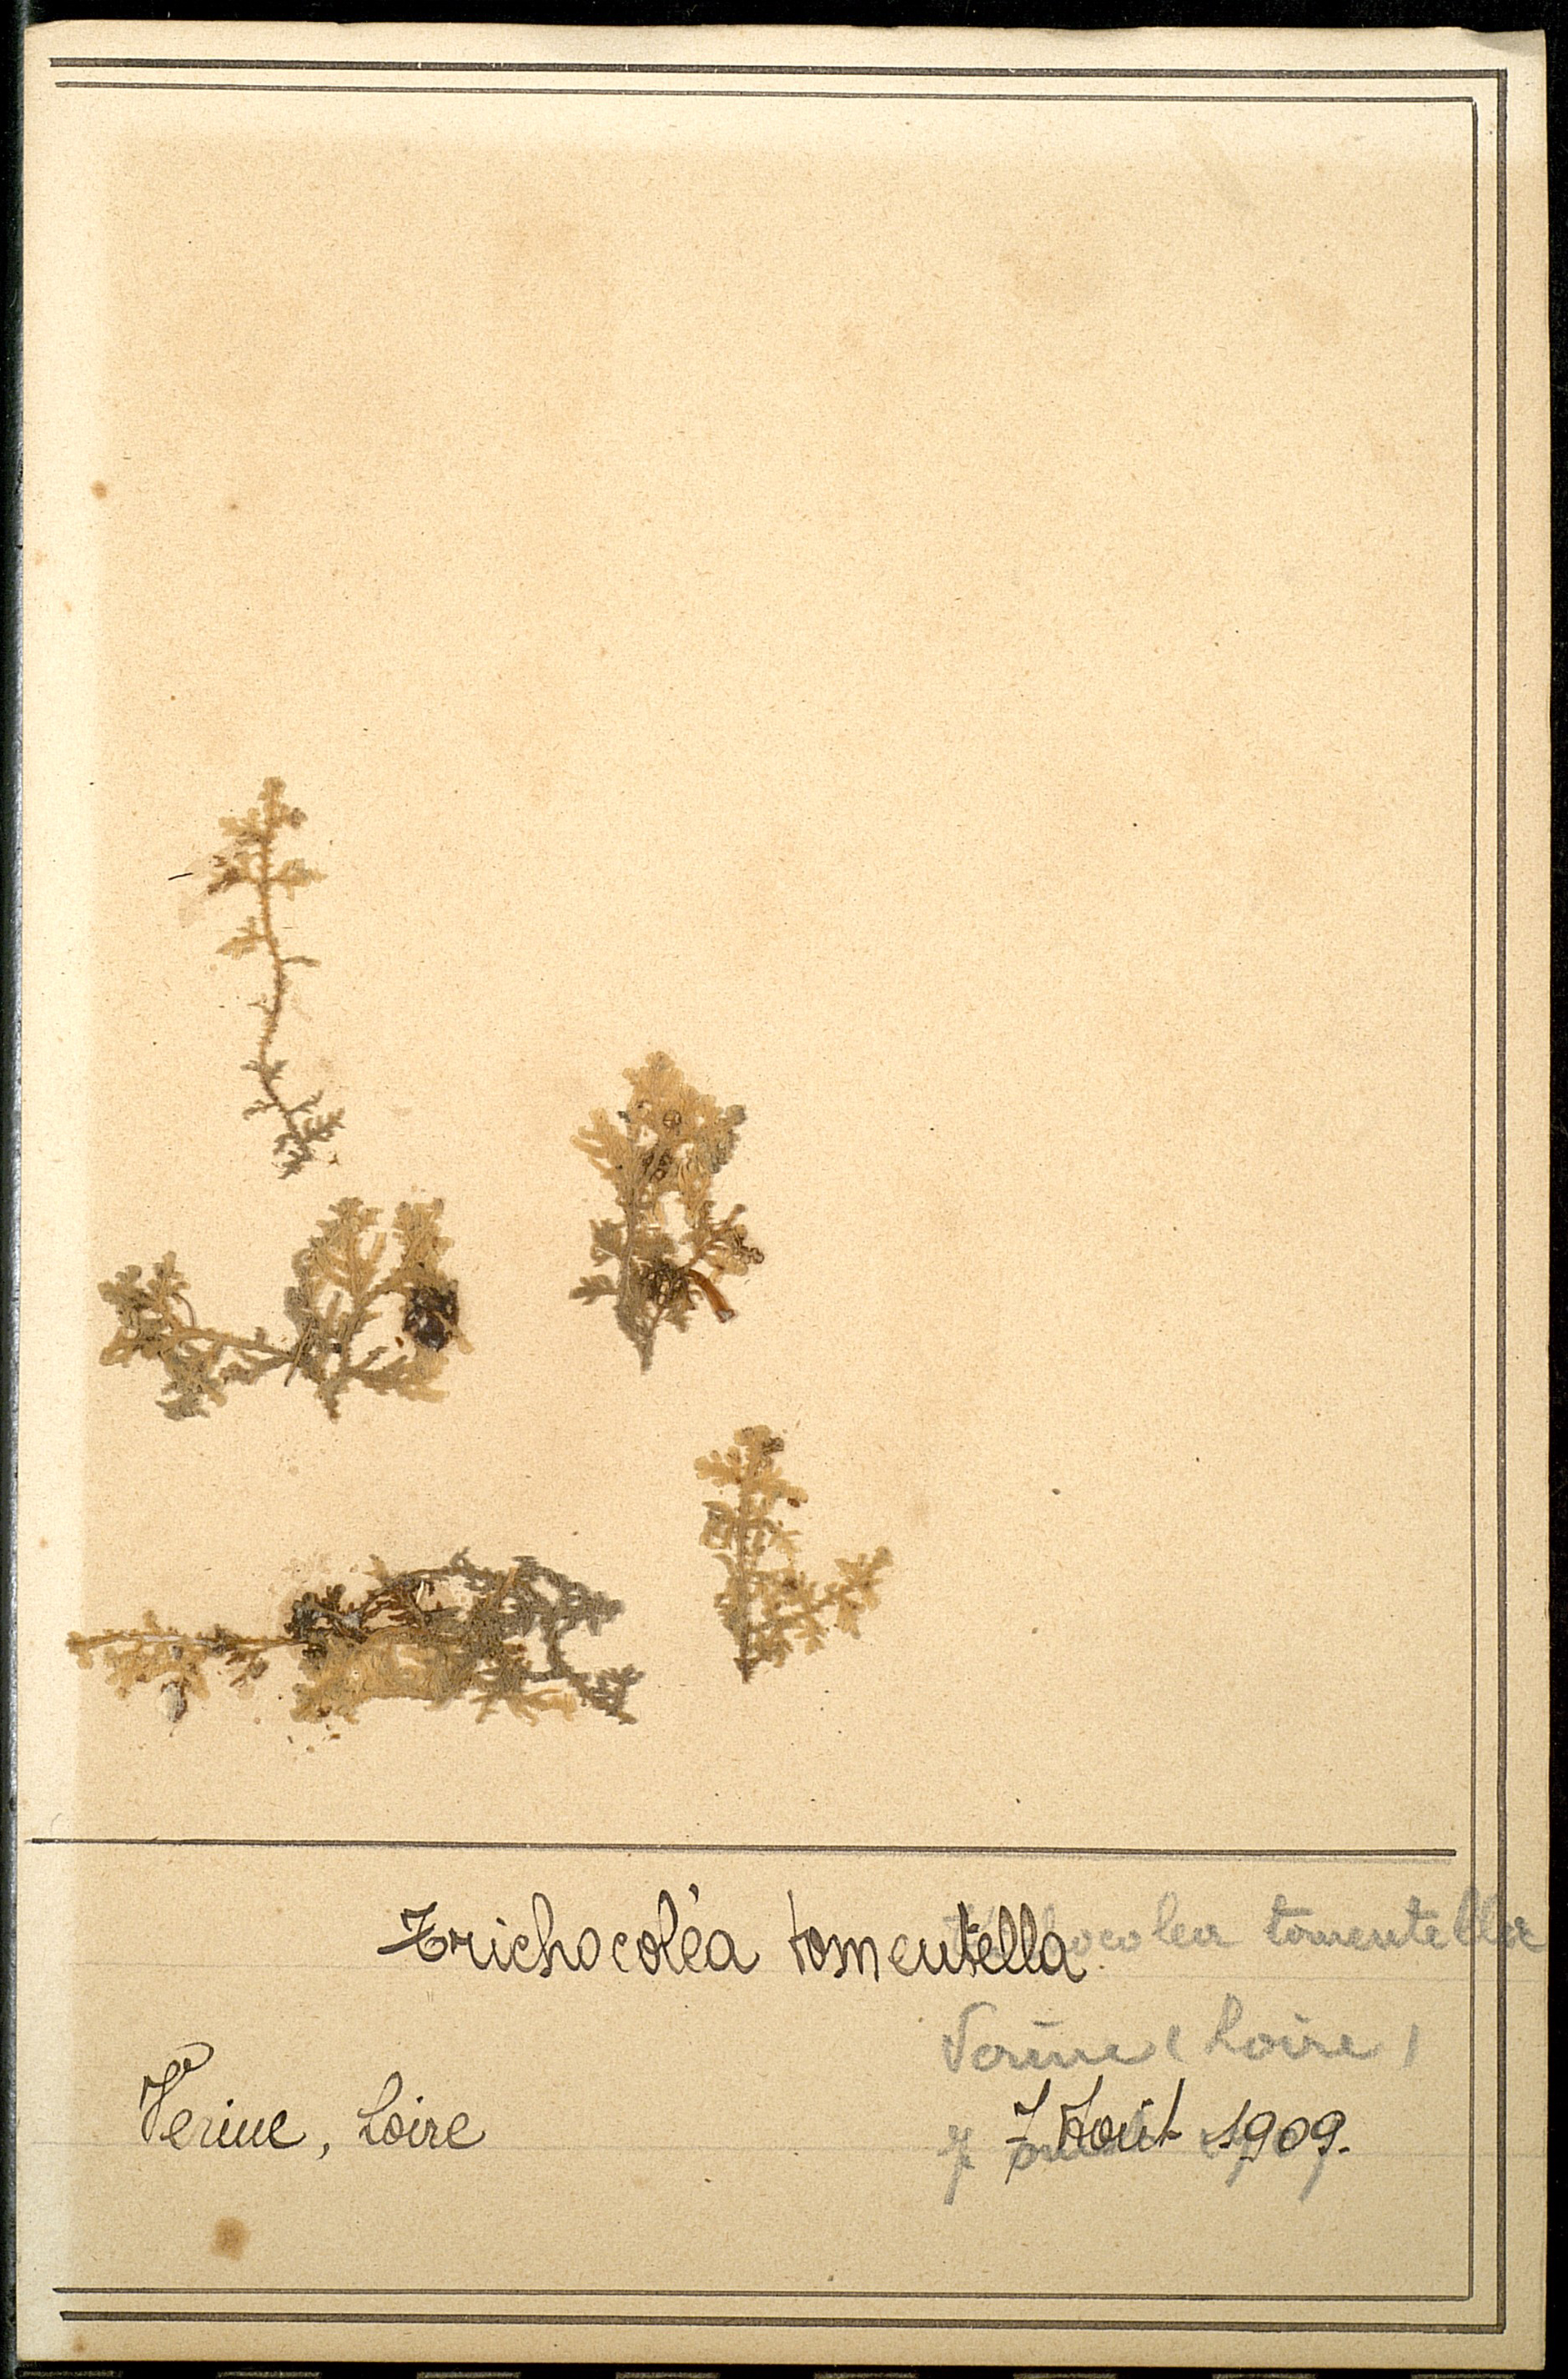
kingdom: Plantae
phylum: Marchantiophyta
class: Jungermanniopsida
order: Jungermanniales
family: Trichocoleaceae
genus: Trichocolea
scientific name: Trichocolea tomentella
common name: Woolly liverwort
